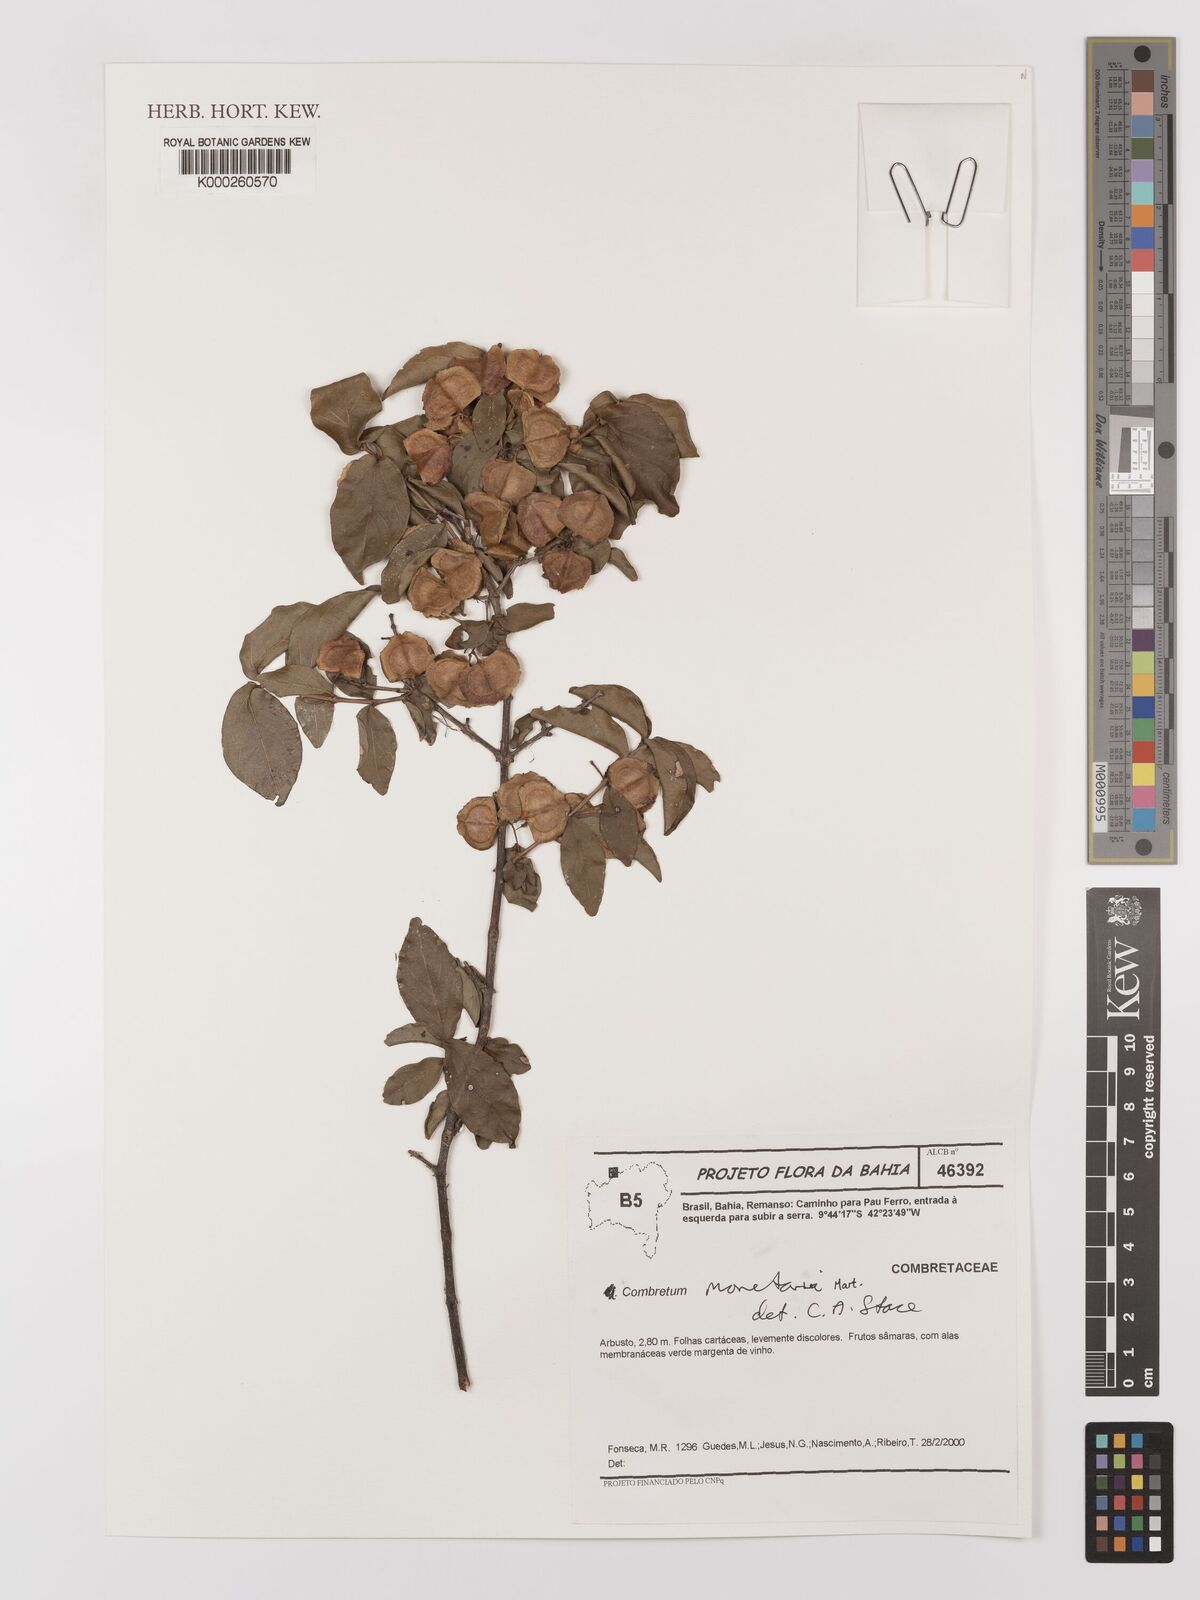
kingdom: Plantae
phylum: Tracheophyta
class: Magnoliopsida
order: Myrtales
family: Combretaceae
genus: Combretum
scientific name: Combretum monetaria
